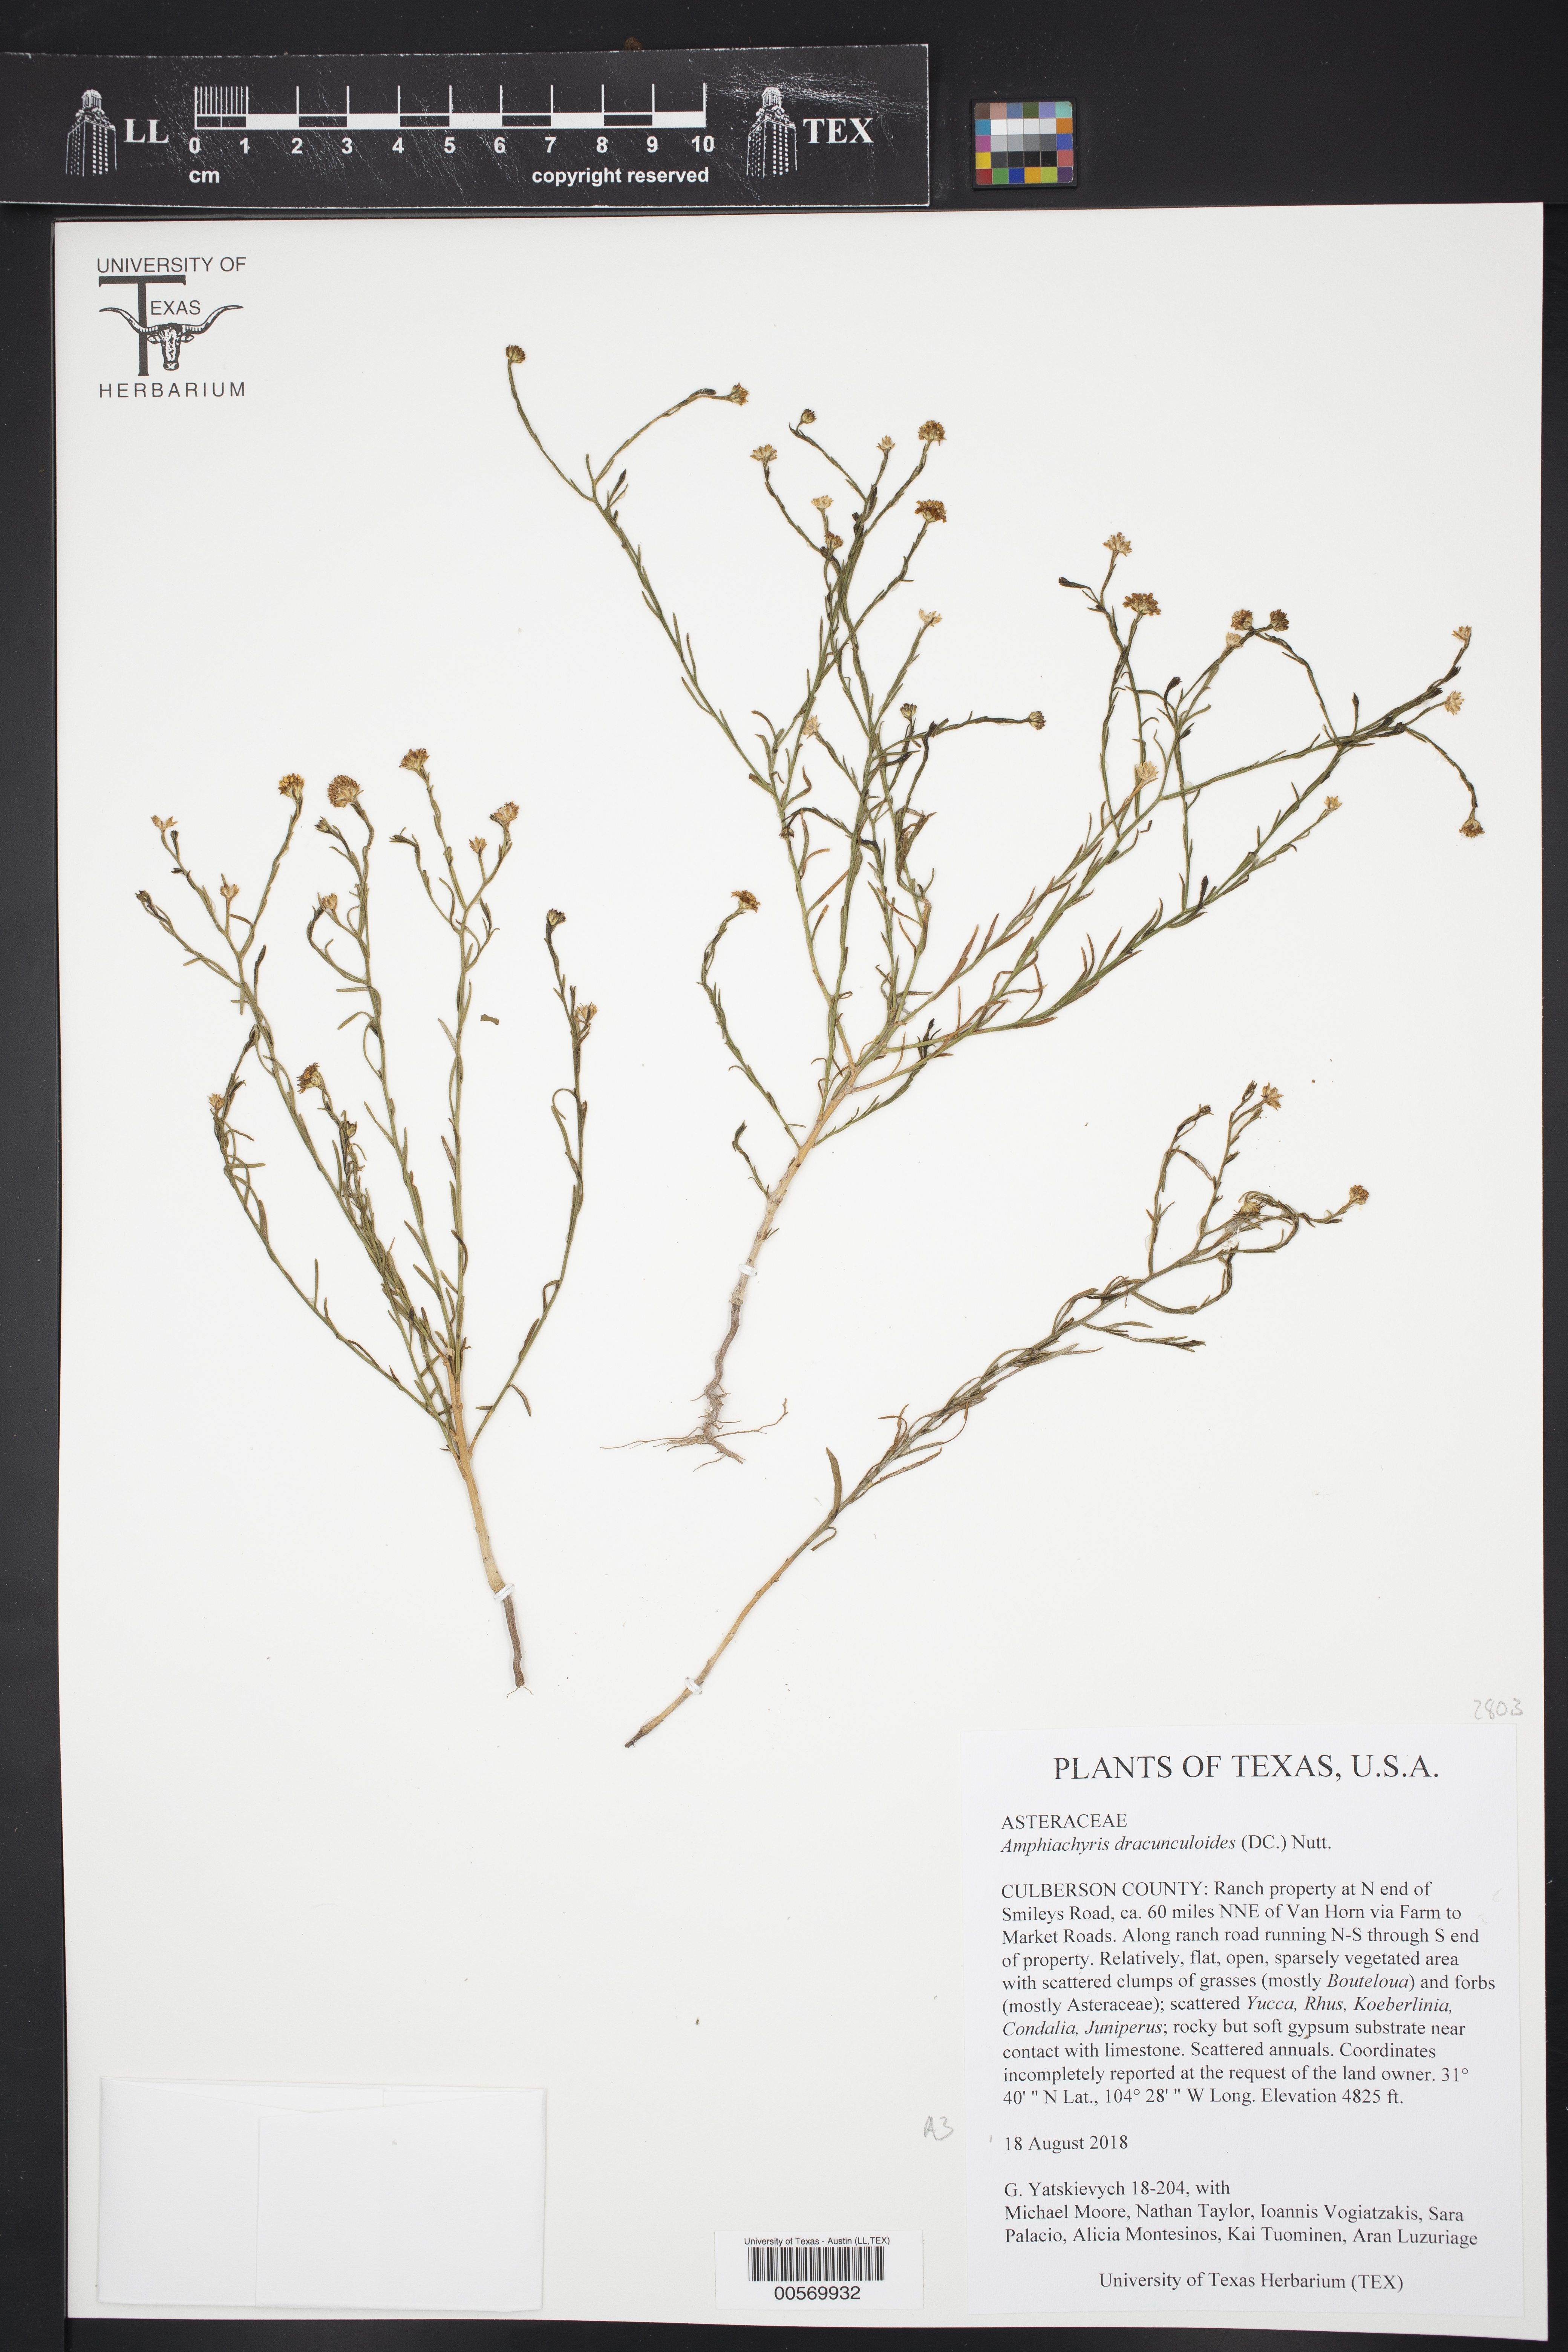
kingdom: Plantae
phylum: Tracheophyta
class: Magnoliopsida
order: Asterales
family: Asteraceae
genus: Psilostrophe
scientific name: Psilostrophe tagetina
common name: Marigold paper-flower
